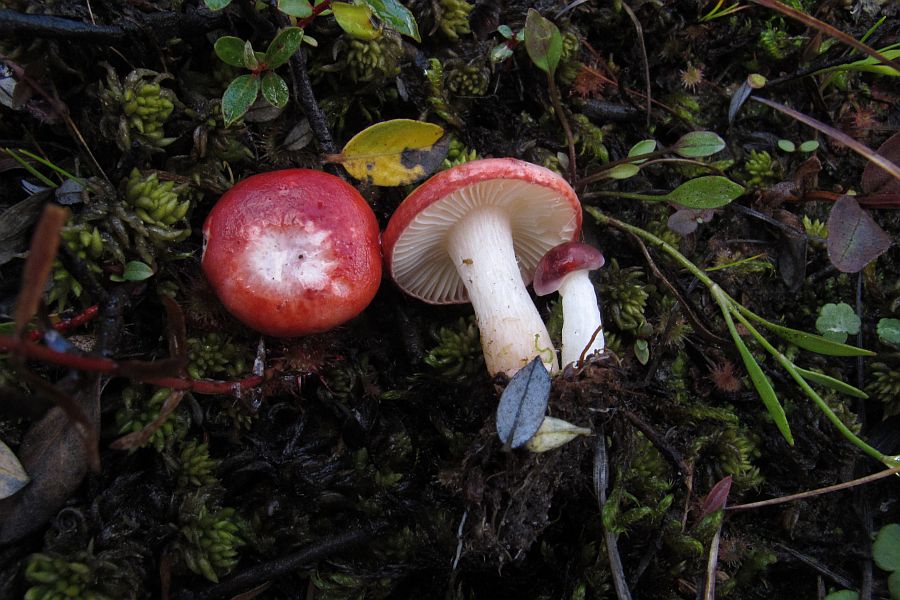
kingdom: Fungi
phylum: Basidiomycota
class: Agaricomycetes
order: Russulales
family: Russulaceae
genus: Russula
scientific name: Russula laccata
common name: klit-skørhat
